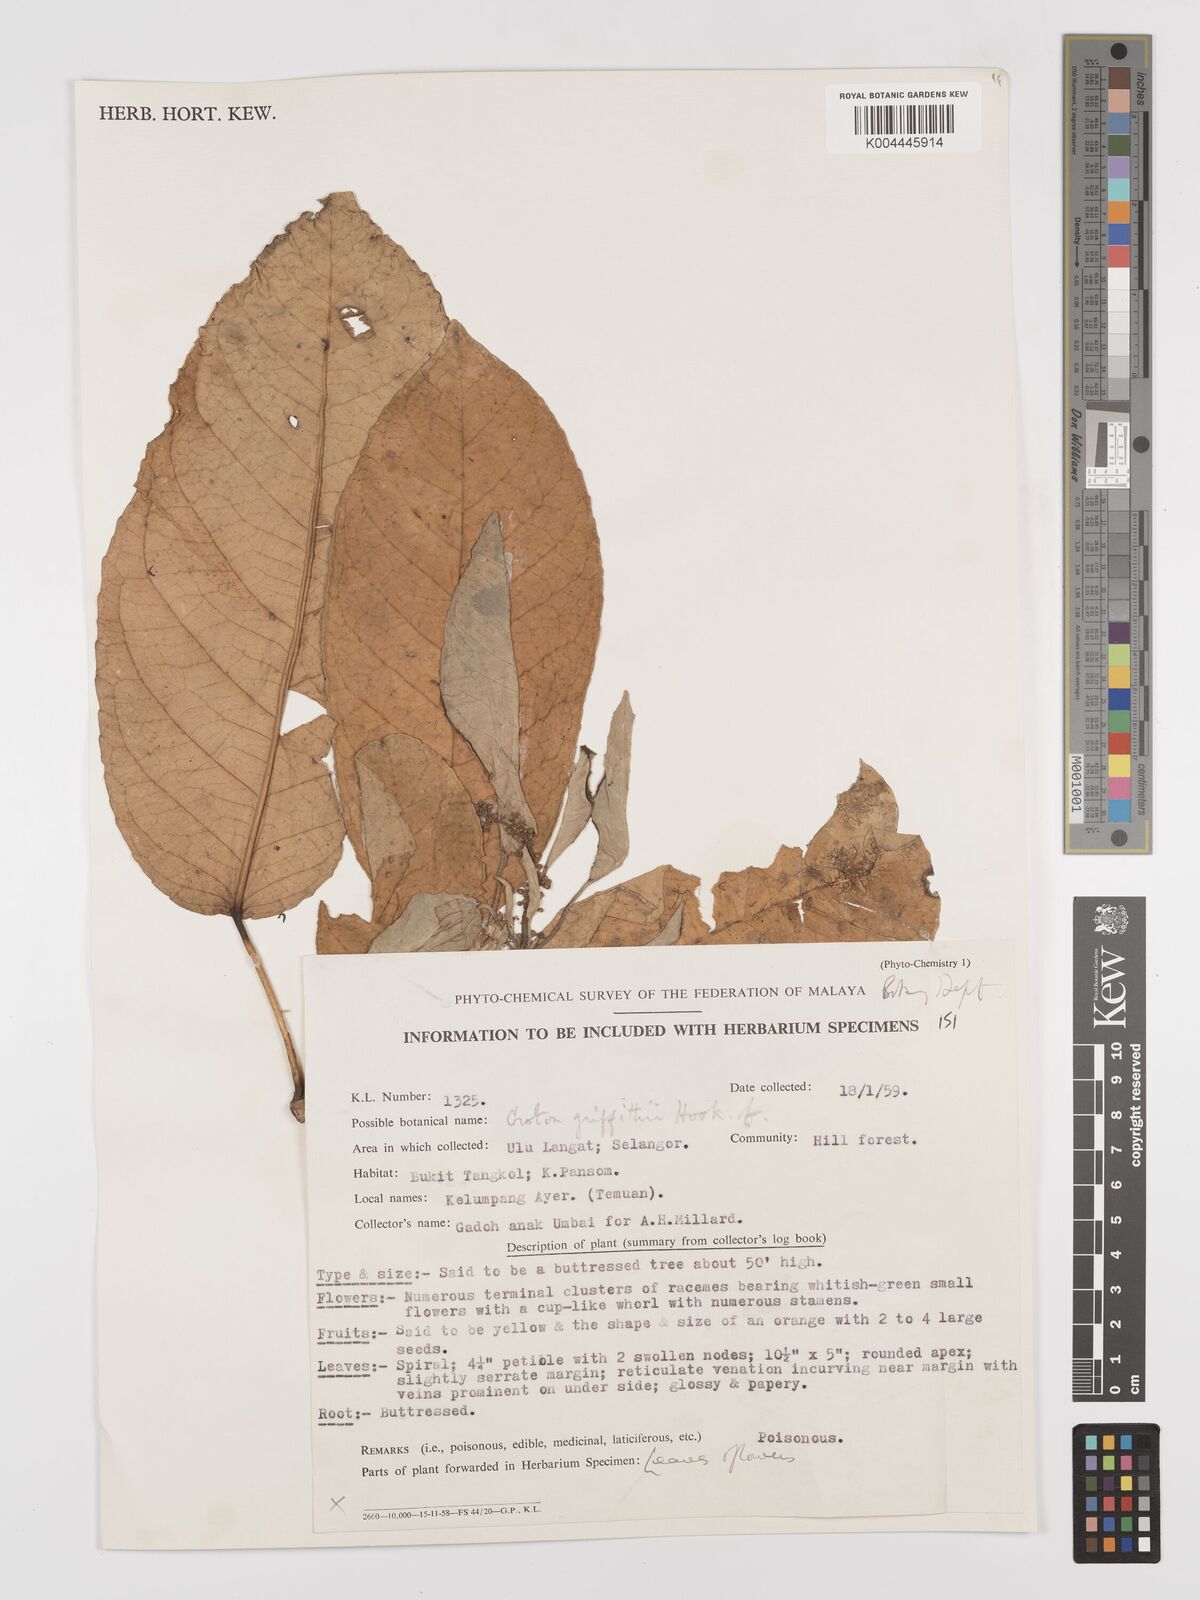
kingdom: Plantae
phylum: Tracheophyta
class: Magnoliopsida
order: Malpighiales
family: Euphorbiaceae
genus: Croton
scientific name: Croton griffithii
